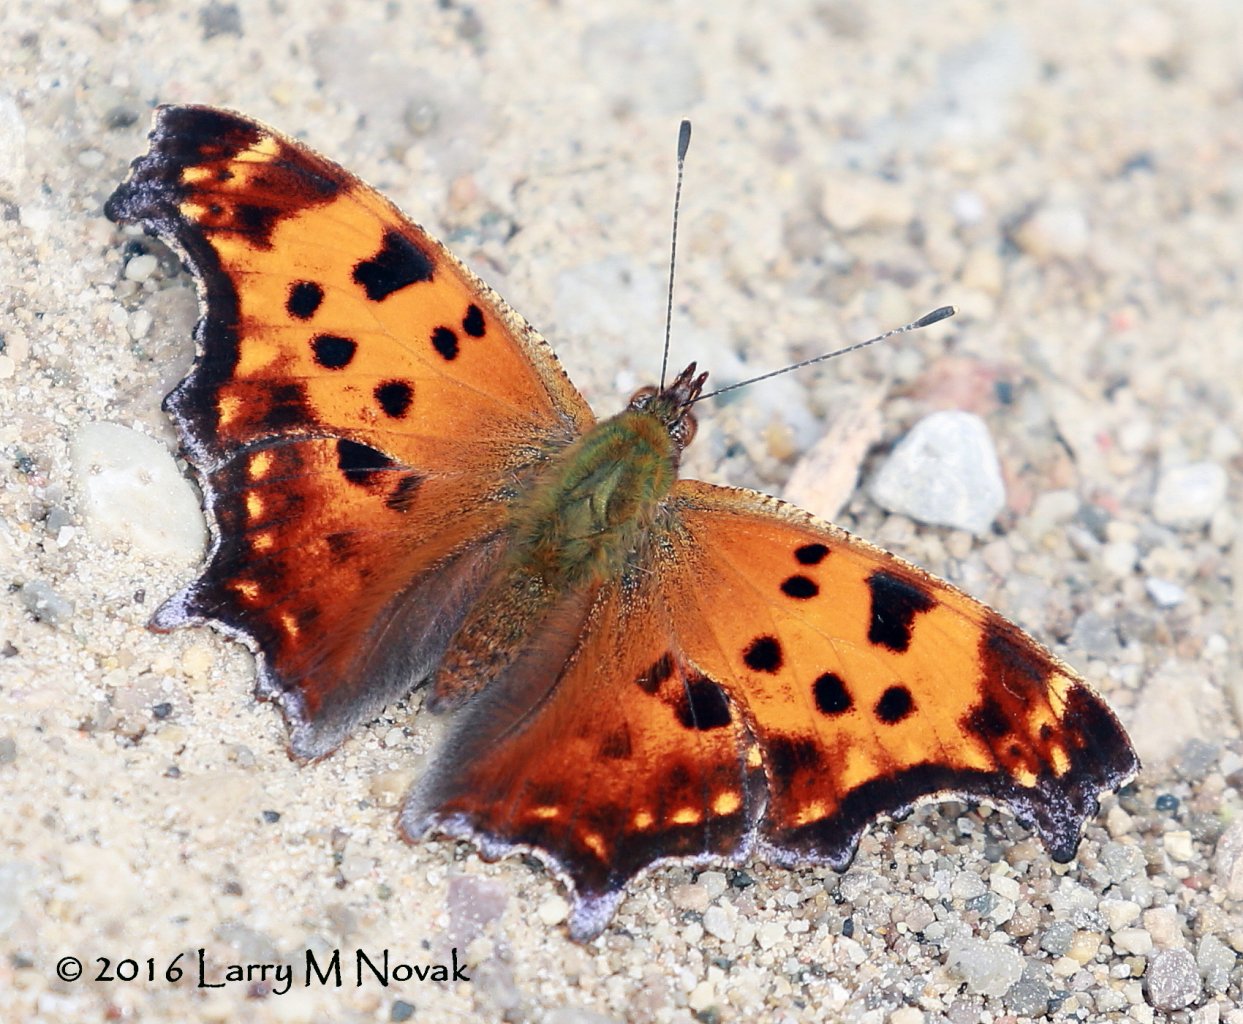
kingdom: Animalia
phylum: Arthropoda
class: Insecta
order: Lepidoptera
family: Nymphalidae
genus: Polygonia
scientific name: Polygonia comma
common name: Eastern Comma
